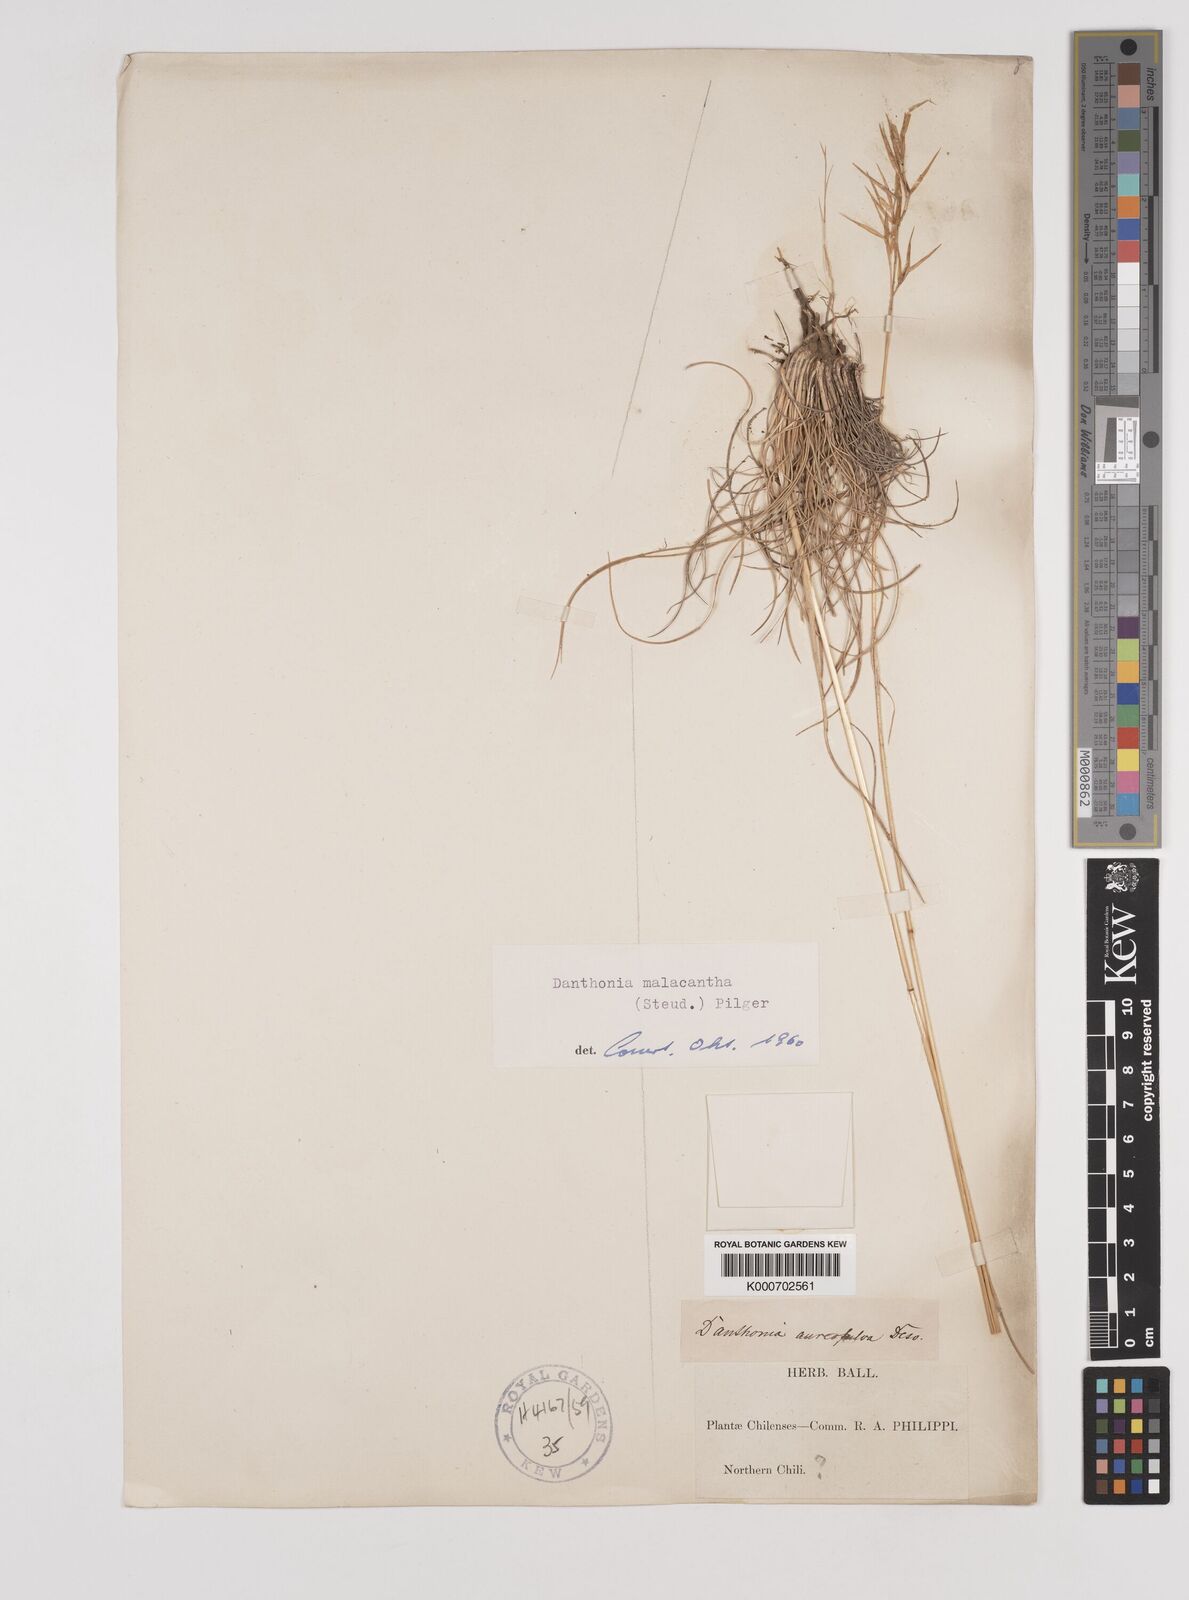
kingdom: Plantae
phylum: Tracheophyta
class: Liliopsida
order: Poales
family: Poaceae
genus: Danthonia
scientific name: Danthonia malacantha
